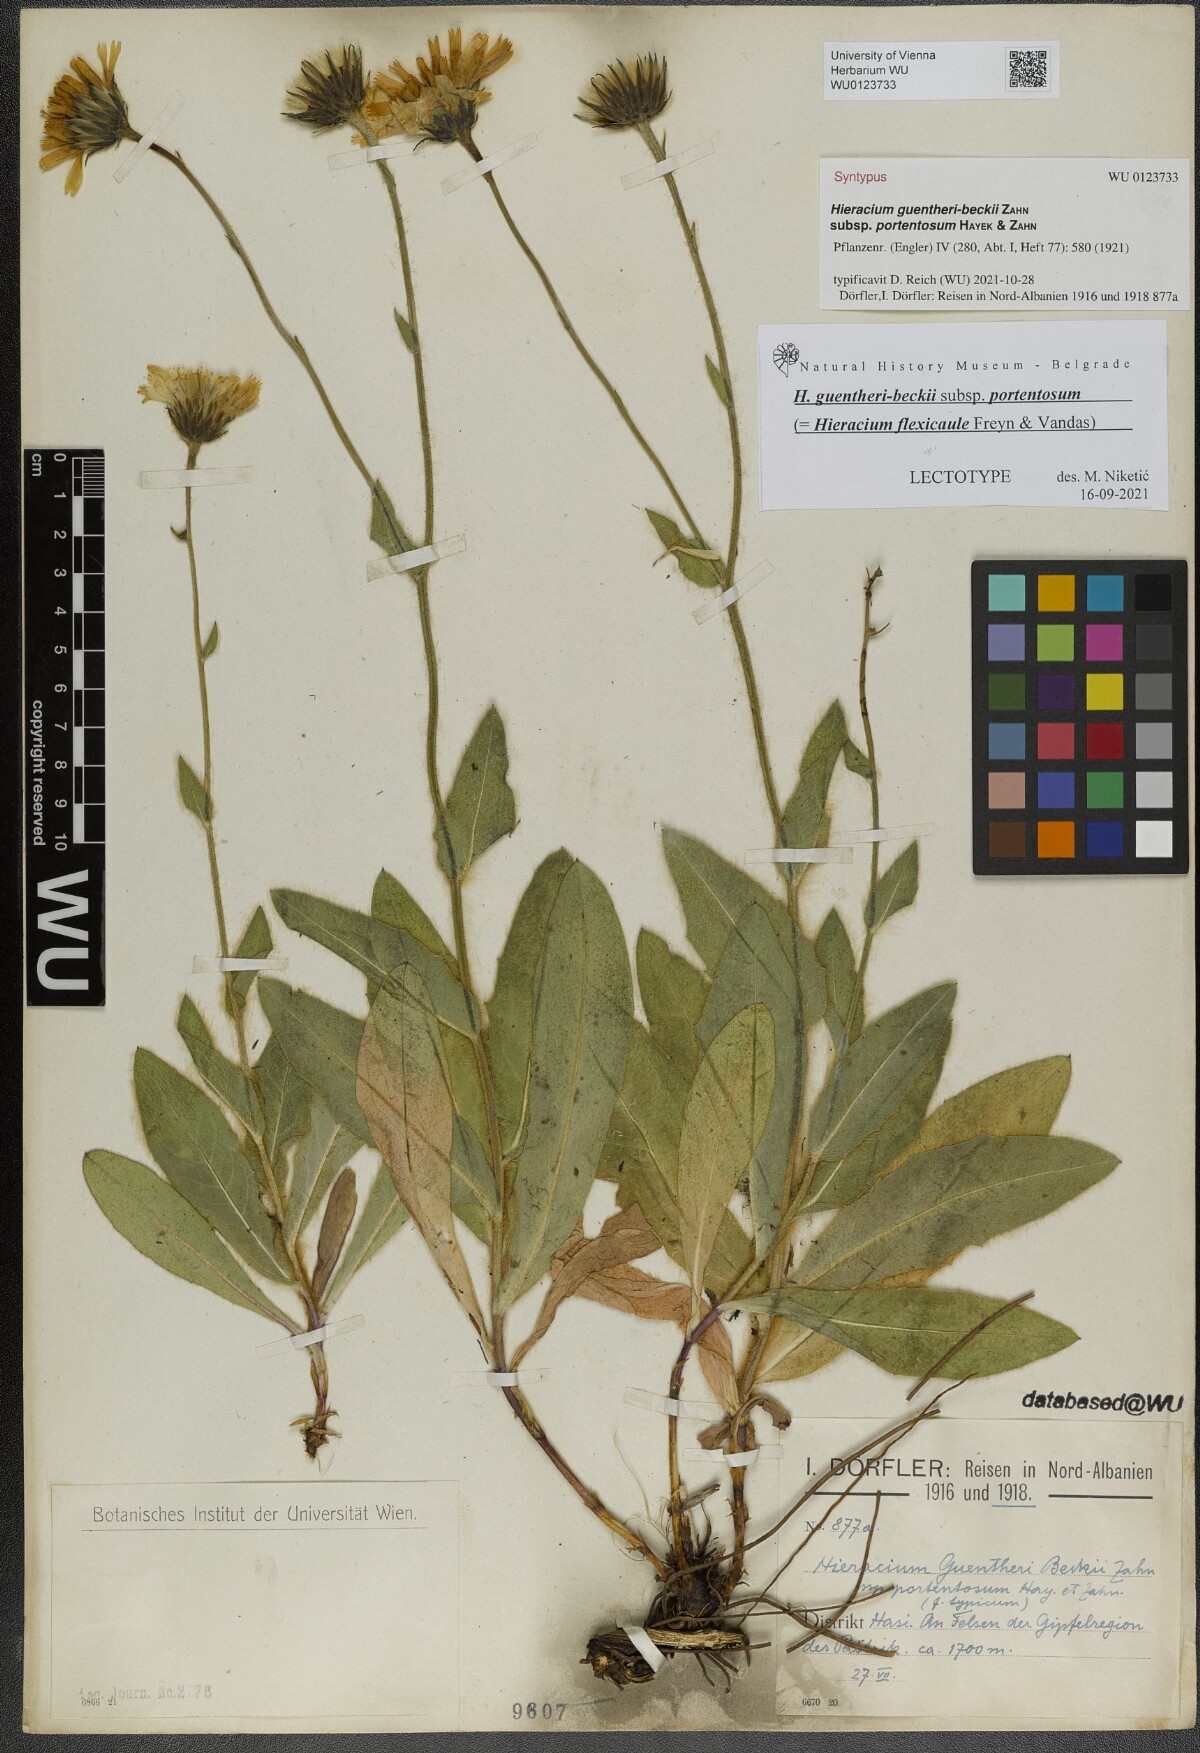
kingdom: Plantae
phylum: Tracheophyta
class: Magnoliopsida
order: Asterales
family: Asteraceae
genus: Hieracium
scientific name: Hieracium stirovacense
